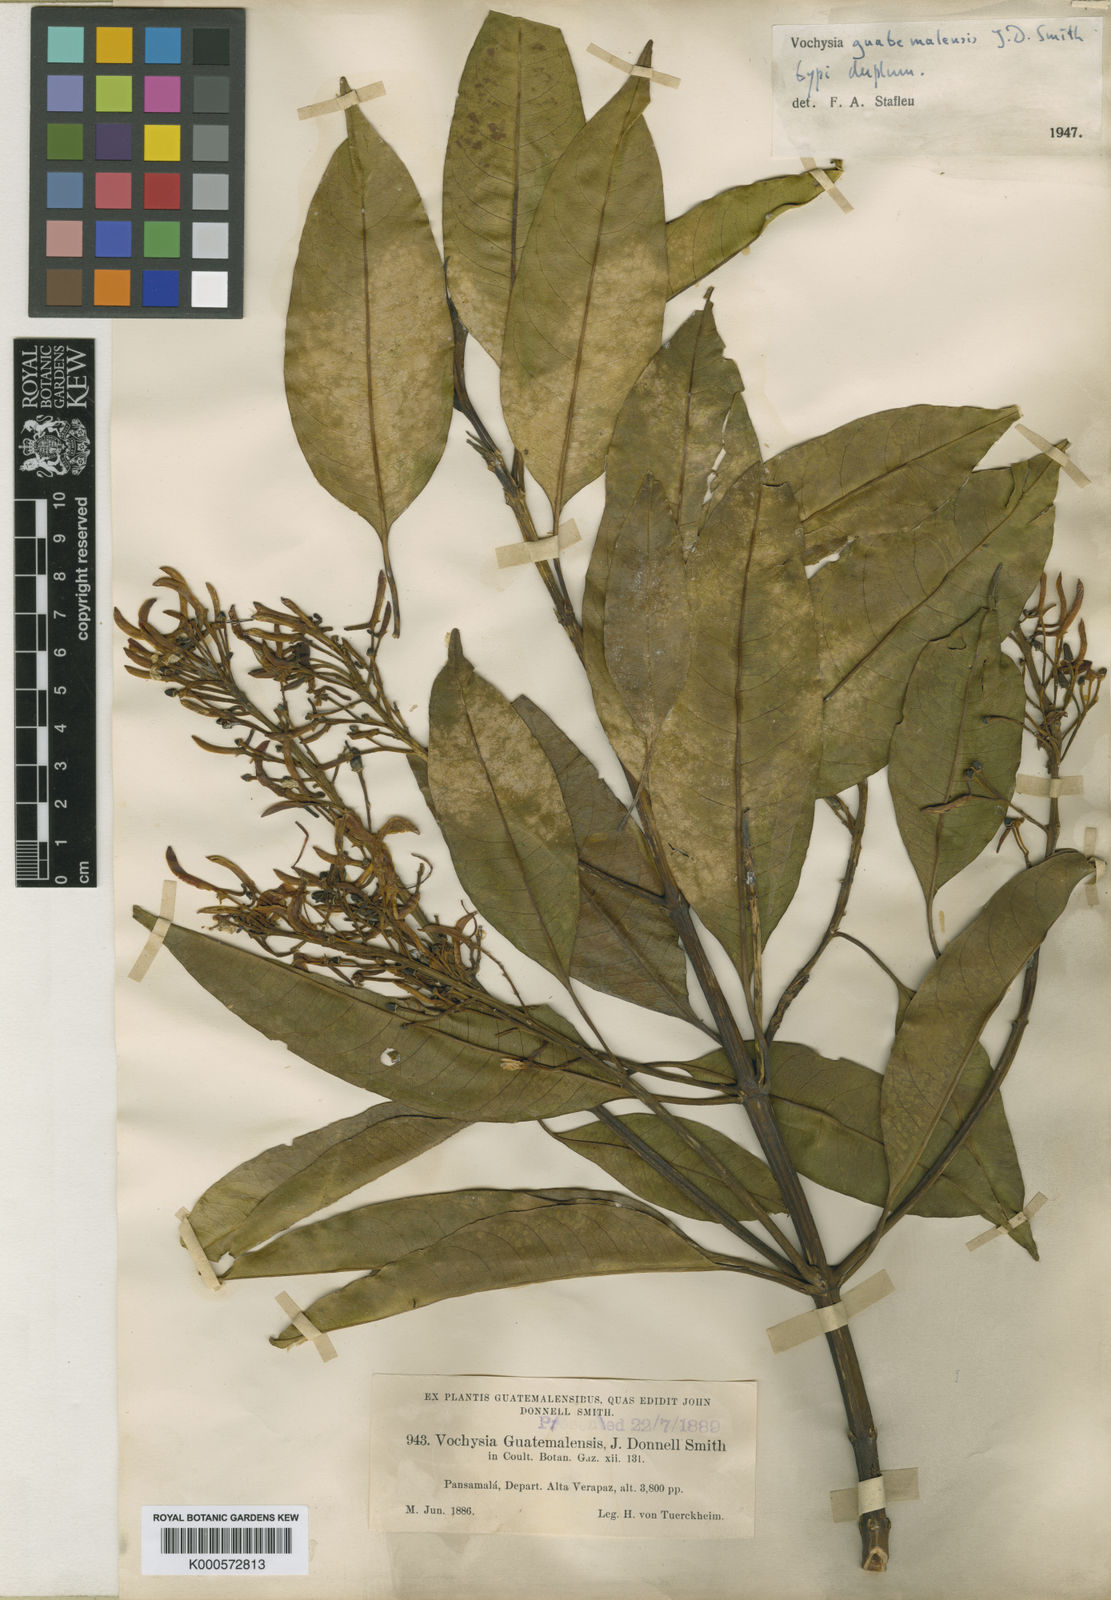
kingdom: Plantae
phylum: Tracheophyta
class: Magnoliopsida
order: Myrtales
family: Vochysiaceae
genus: Vochysia
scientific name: Vochysia guatemalensis
